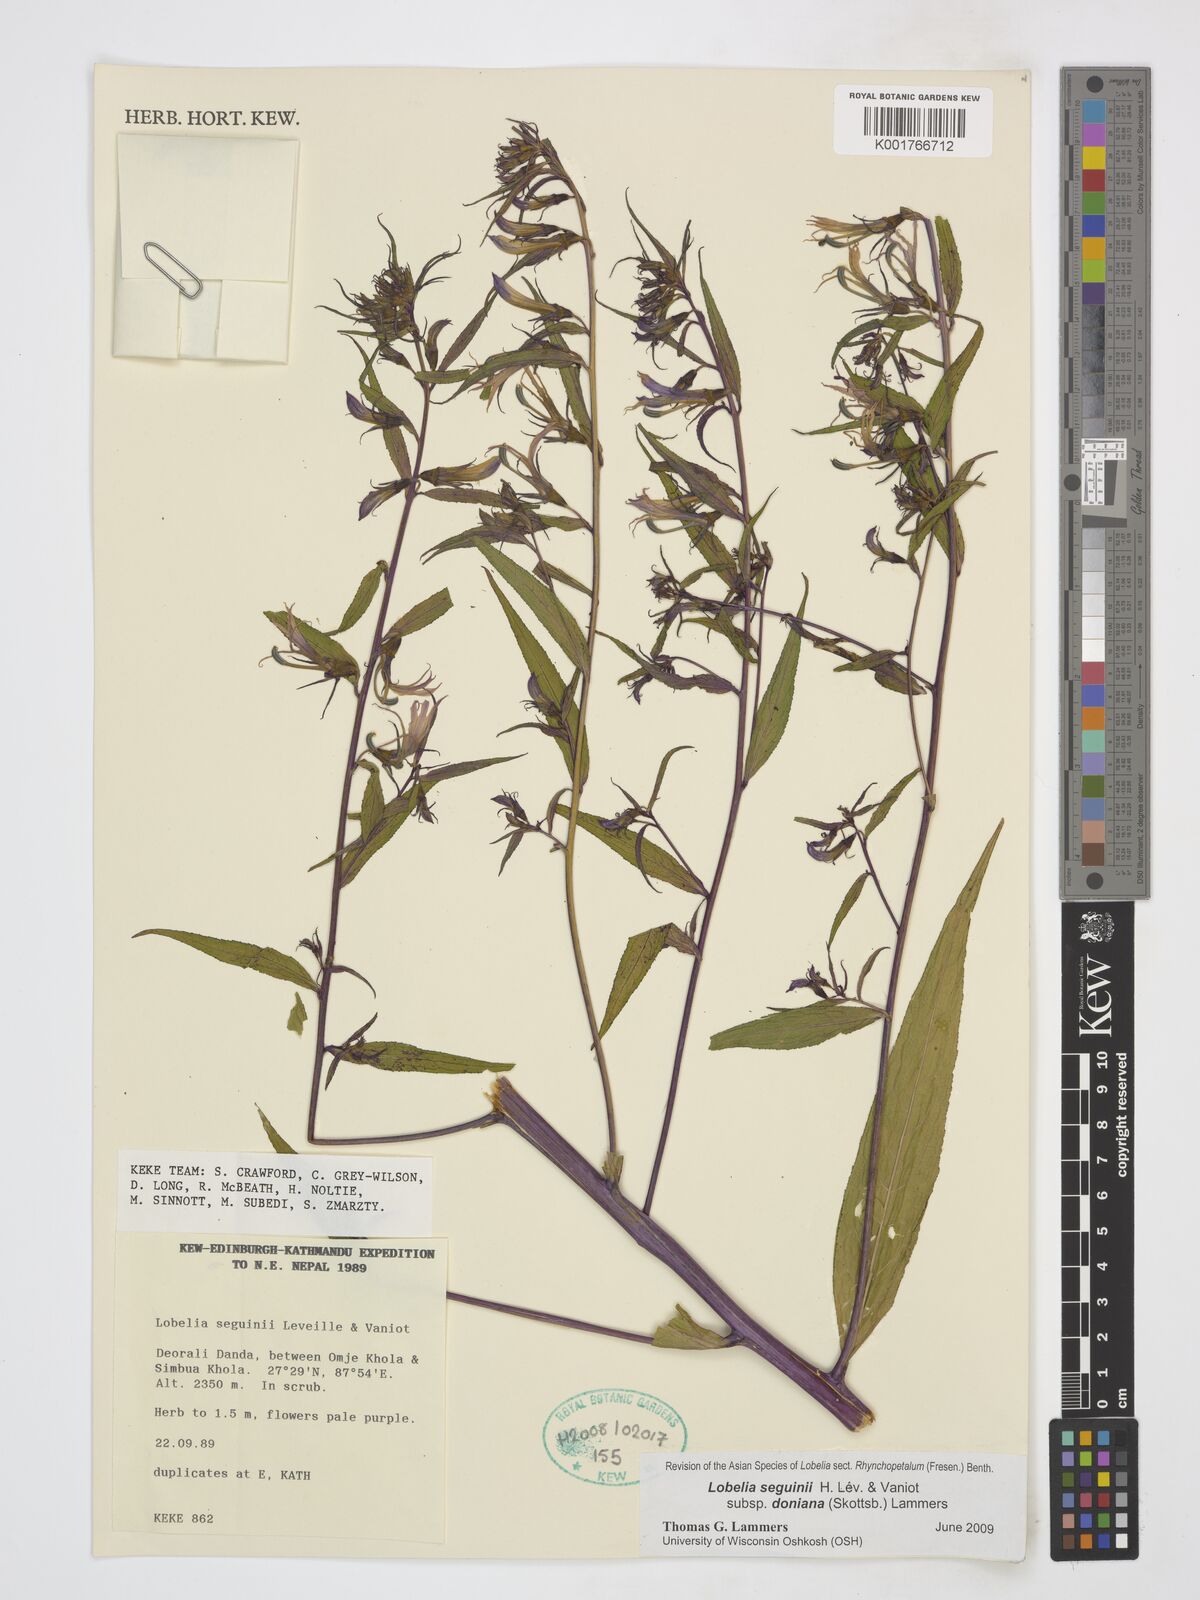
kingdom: Plantae
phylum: Tracheophyta
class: Magnoliopsida
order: Asterales
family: Campanulaceae
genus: Lobelia
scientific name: Lobelia seguinii
